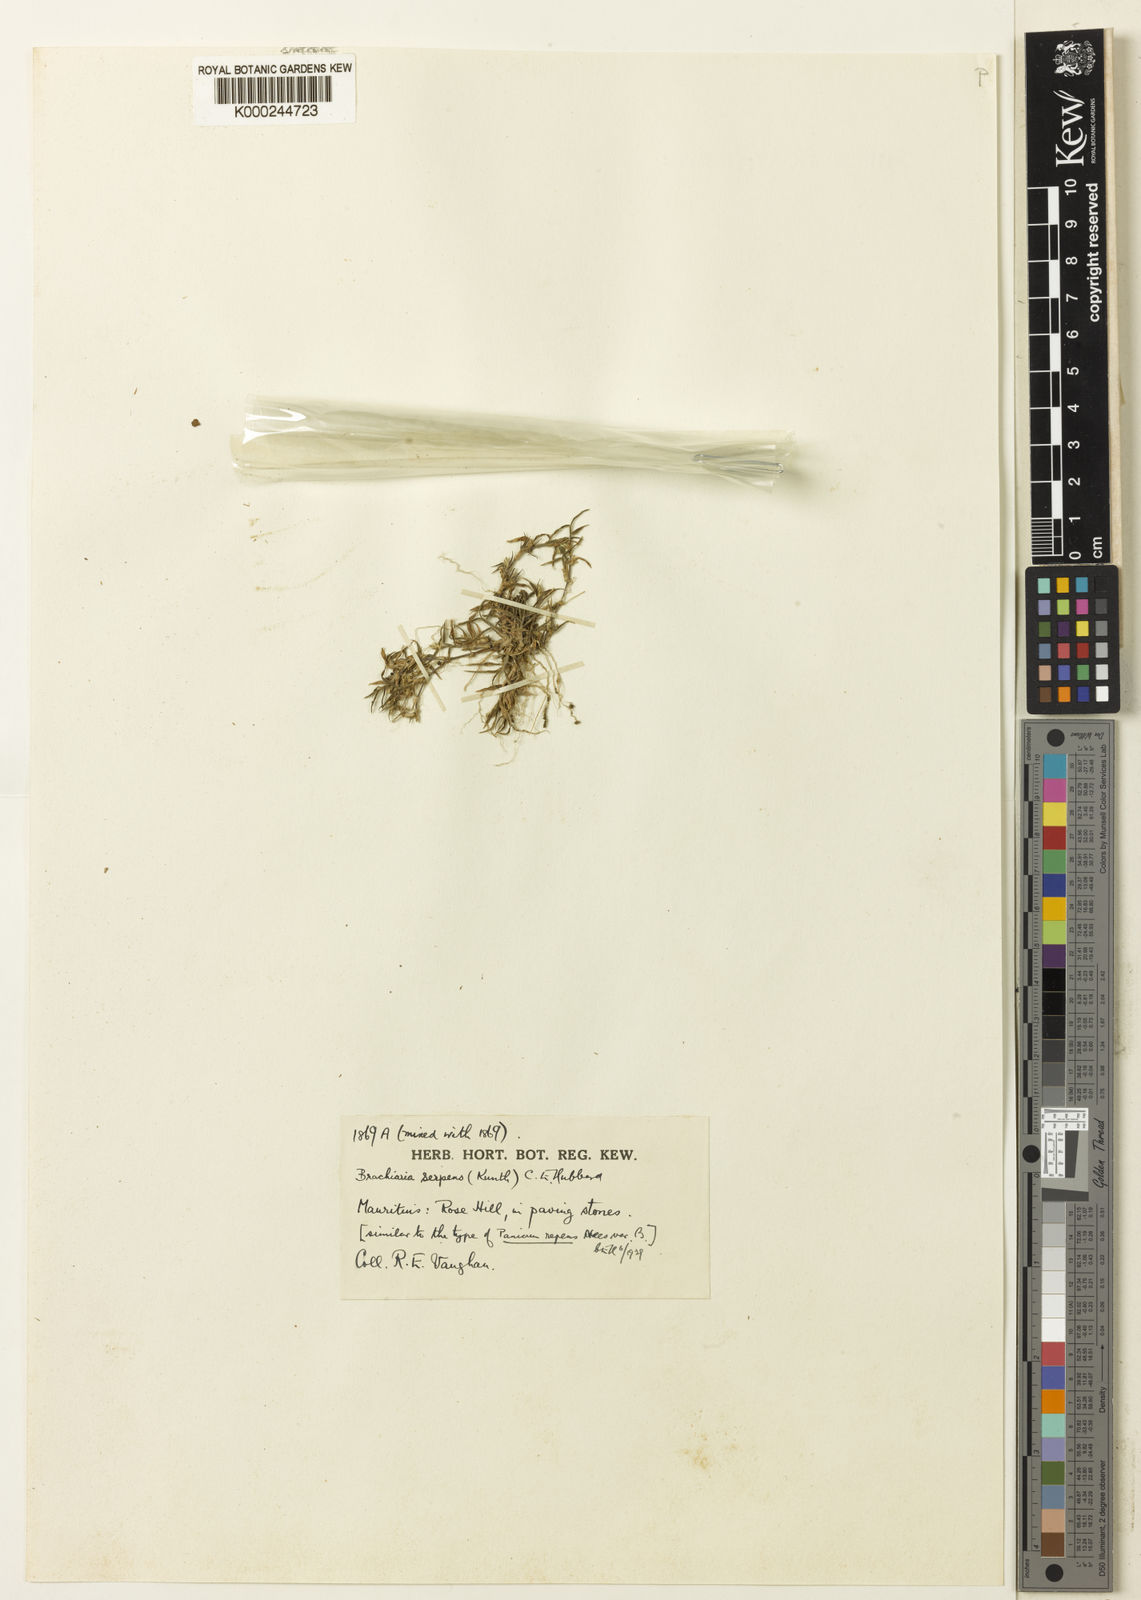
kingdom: Plantae
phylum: Tracheophyta
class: Liliopsida
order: Poales
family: Poaceae
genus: Urochloa
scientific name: Urochloa Brachiaria serpens
